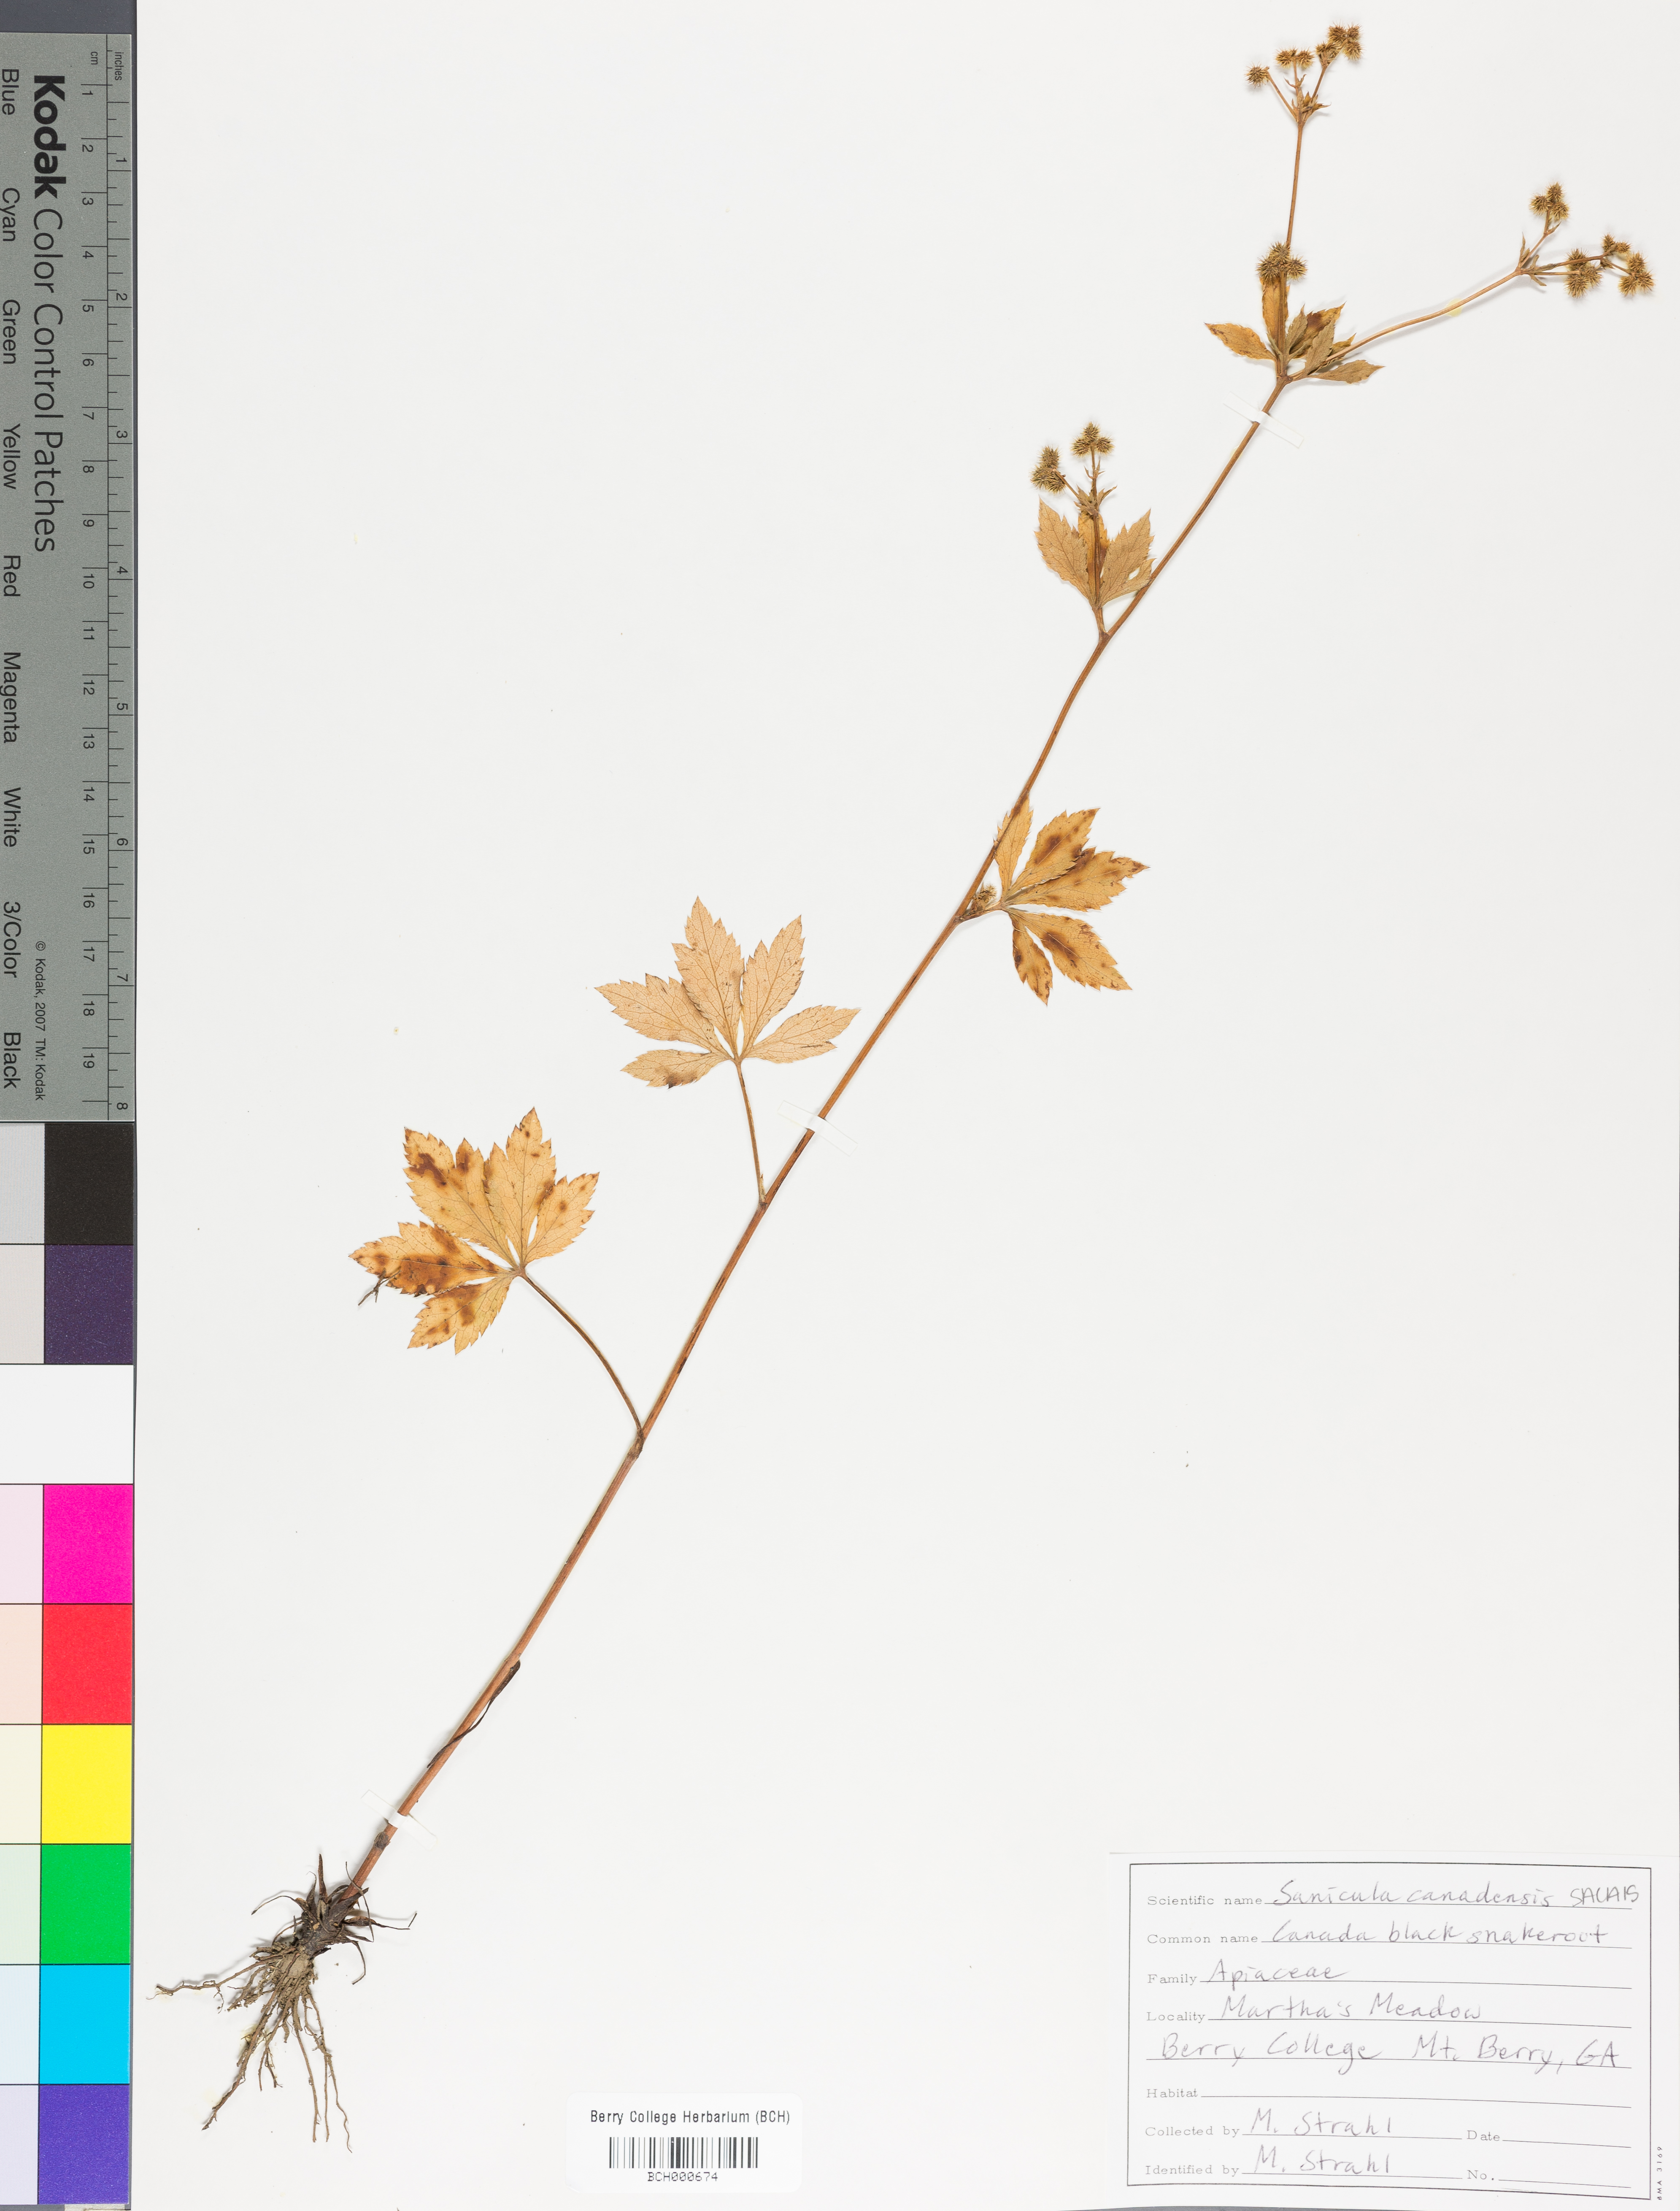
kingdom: Plantae
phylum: Tracheophyta
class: Magnoliopsida
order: Apiales
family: Apiaceae
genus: Sanicula
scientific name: Sanicula canadensis
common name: Canada sanicle
